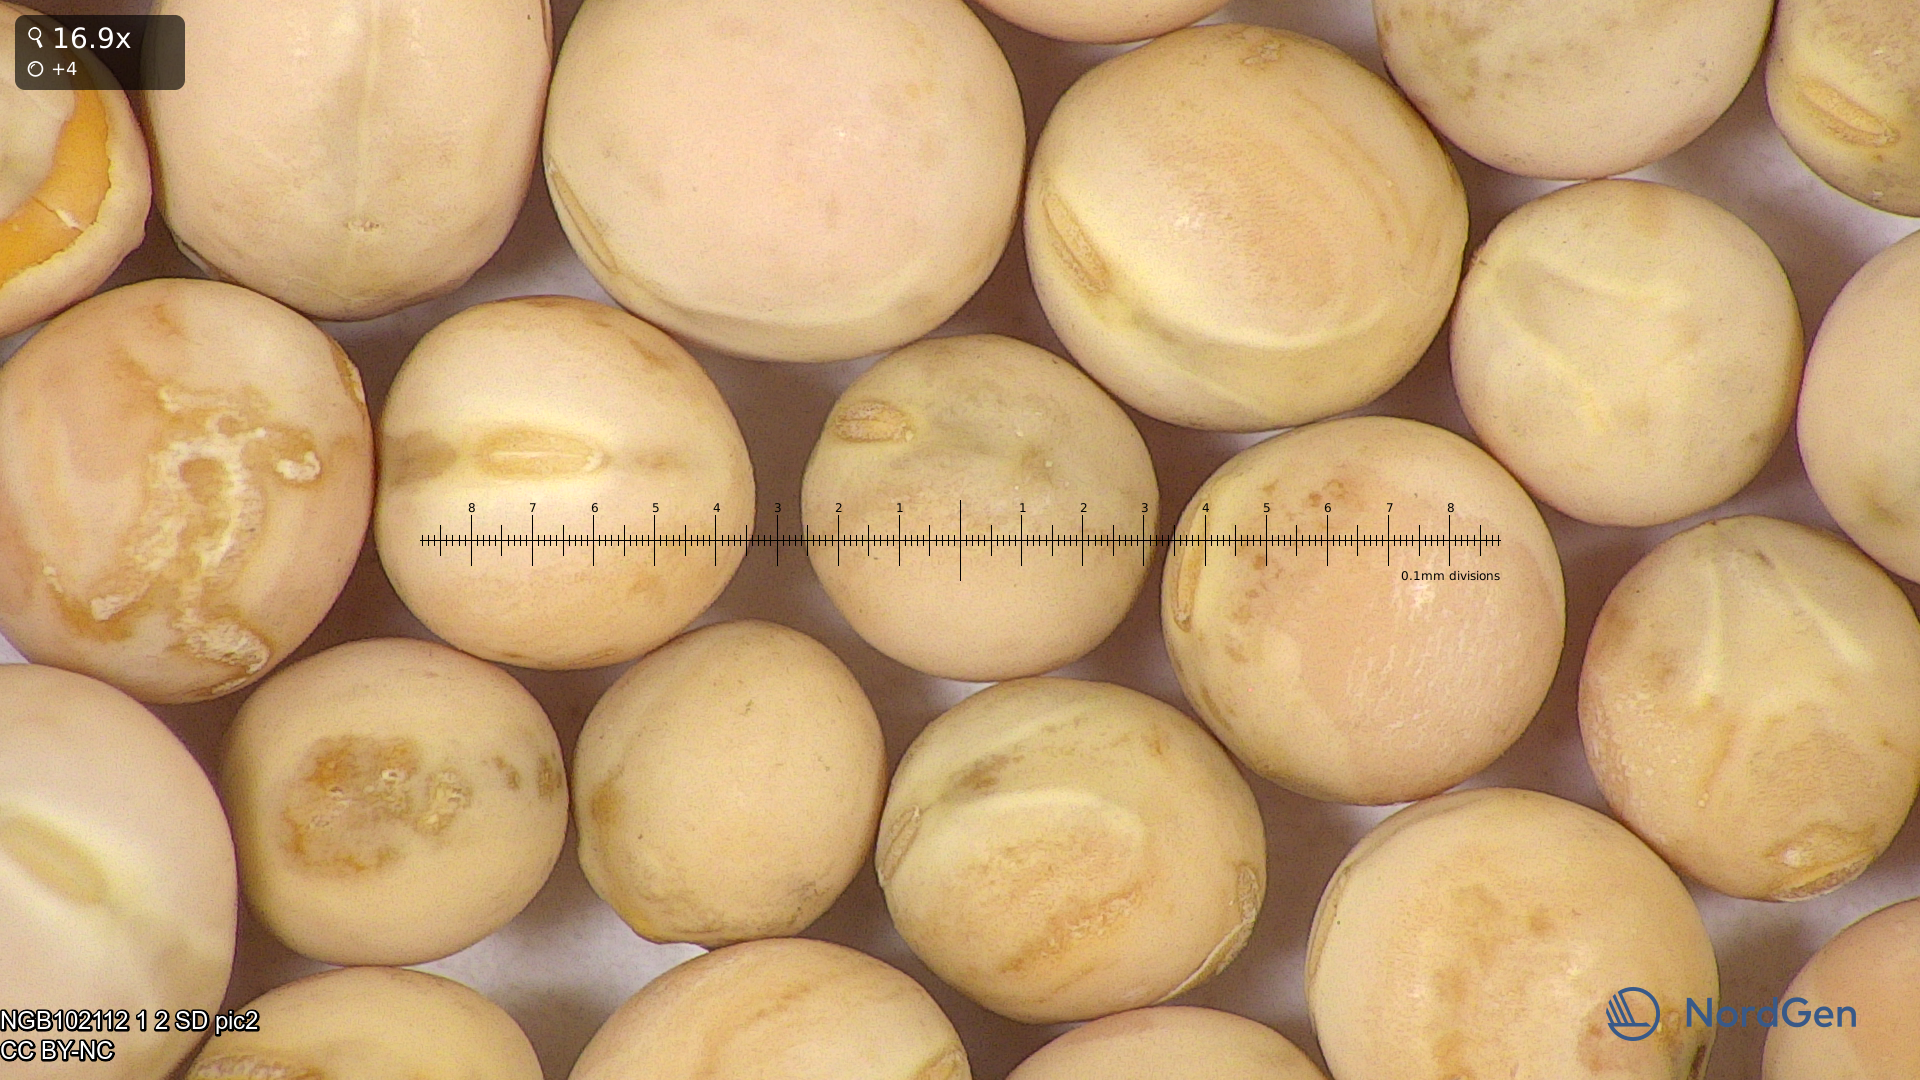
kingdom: Plantae
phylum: Tracheophyta
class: Magnoliopsida
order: Fabales
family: Fabaceae
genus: Lathyrus
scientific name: Lathyrus oleraceus
